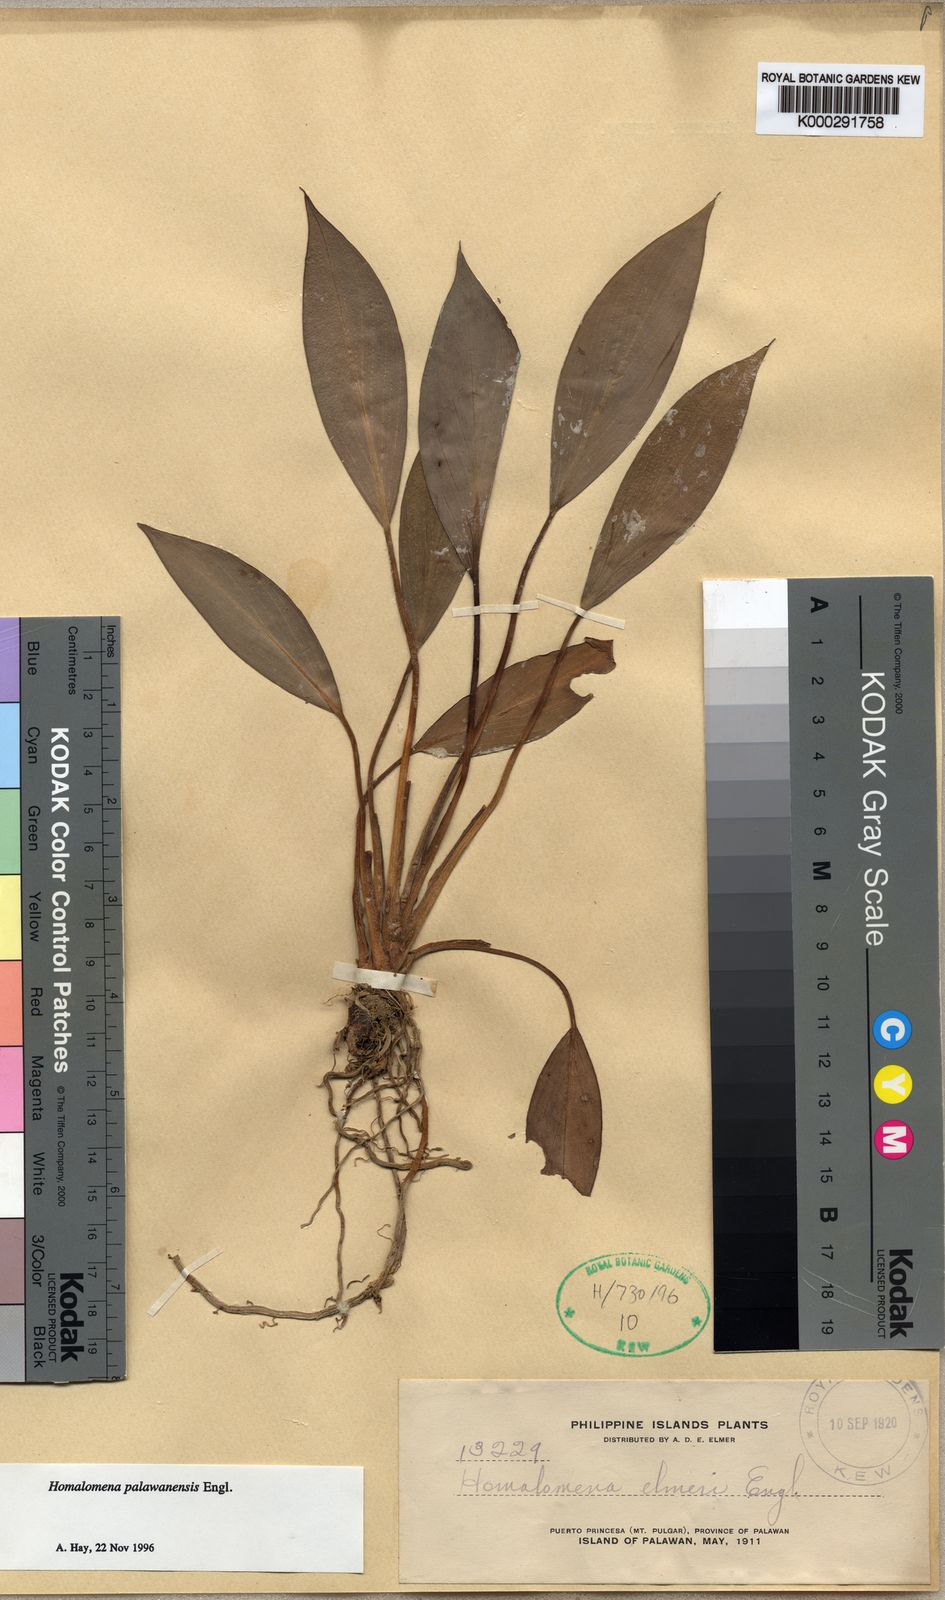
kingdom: Plantae
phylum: Tracheophyta
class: Liliopsida
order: Alismatales
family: Araceae
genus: Homalomena
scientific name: Homalomena palawanensis
